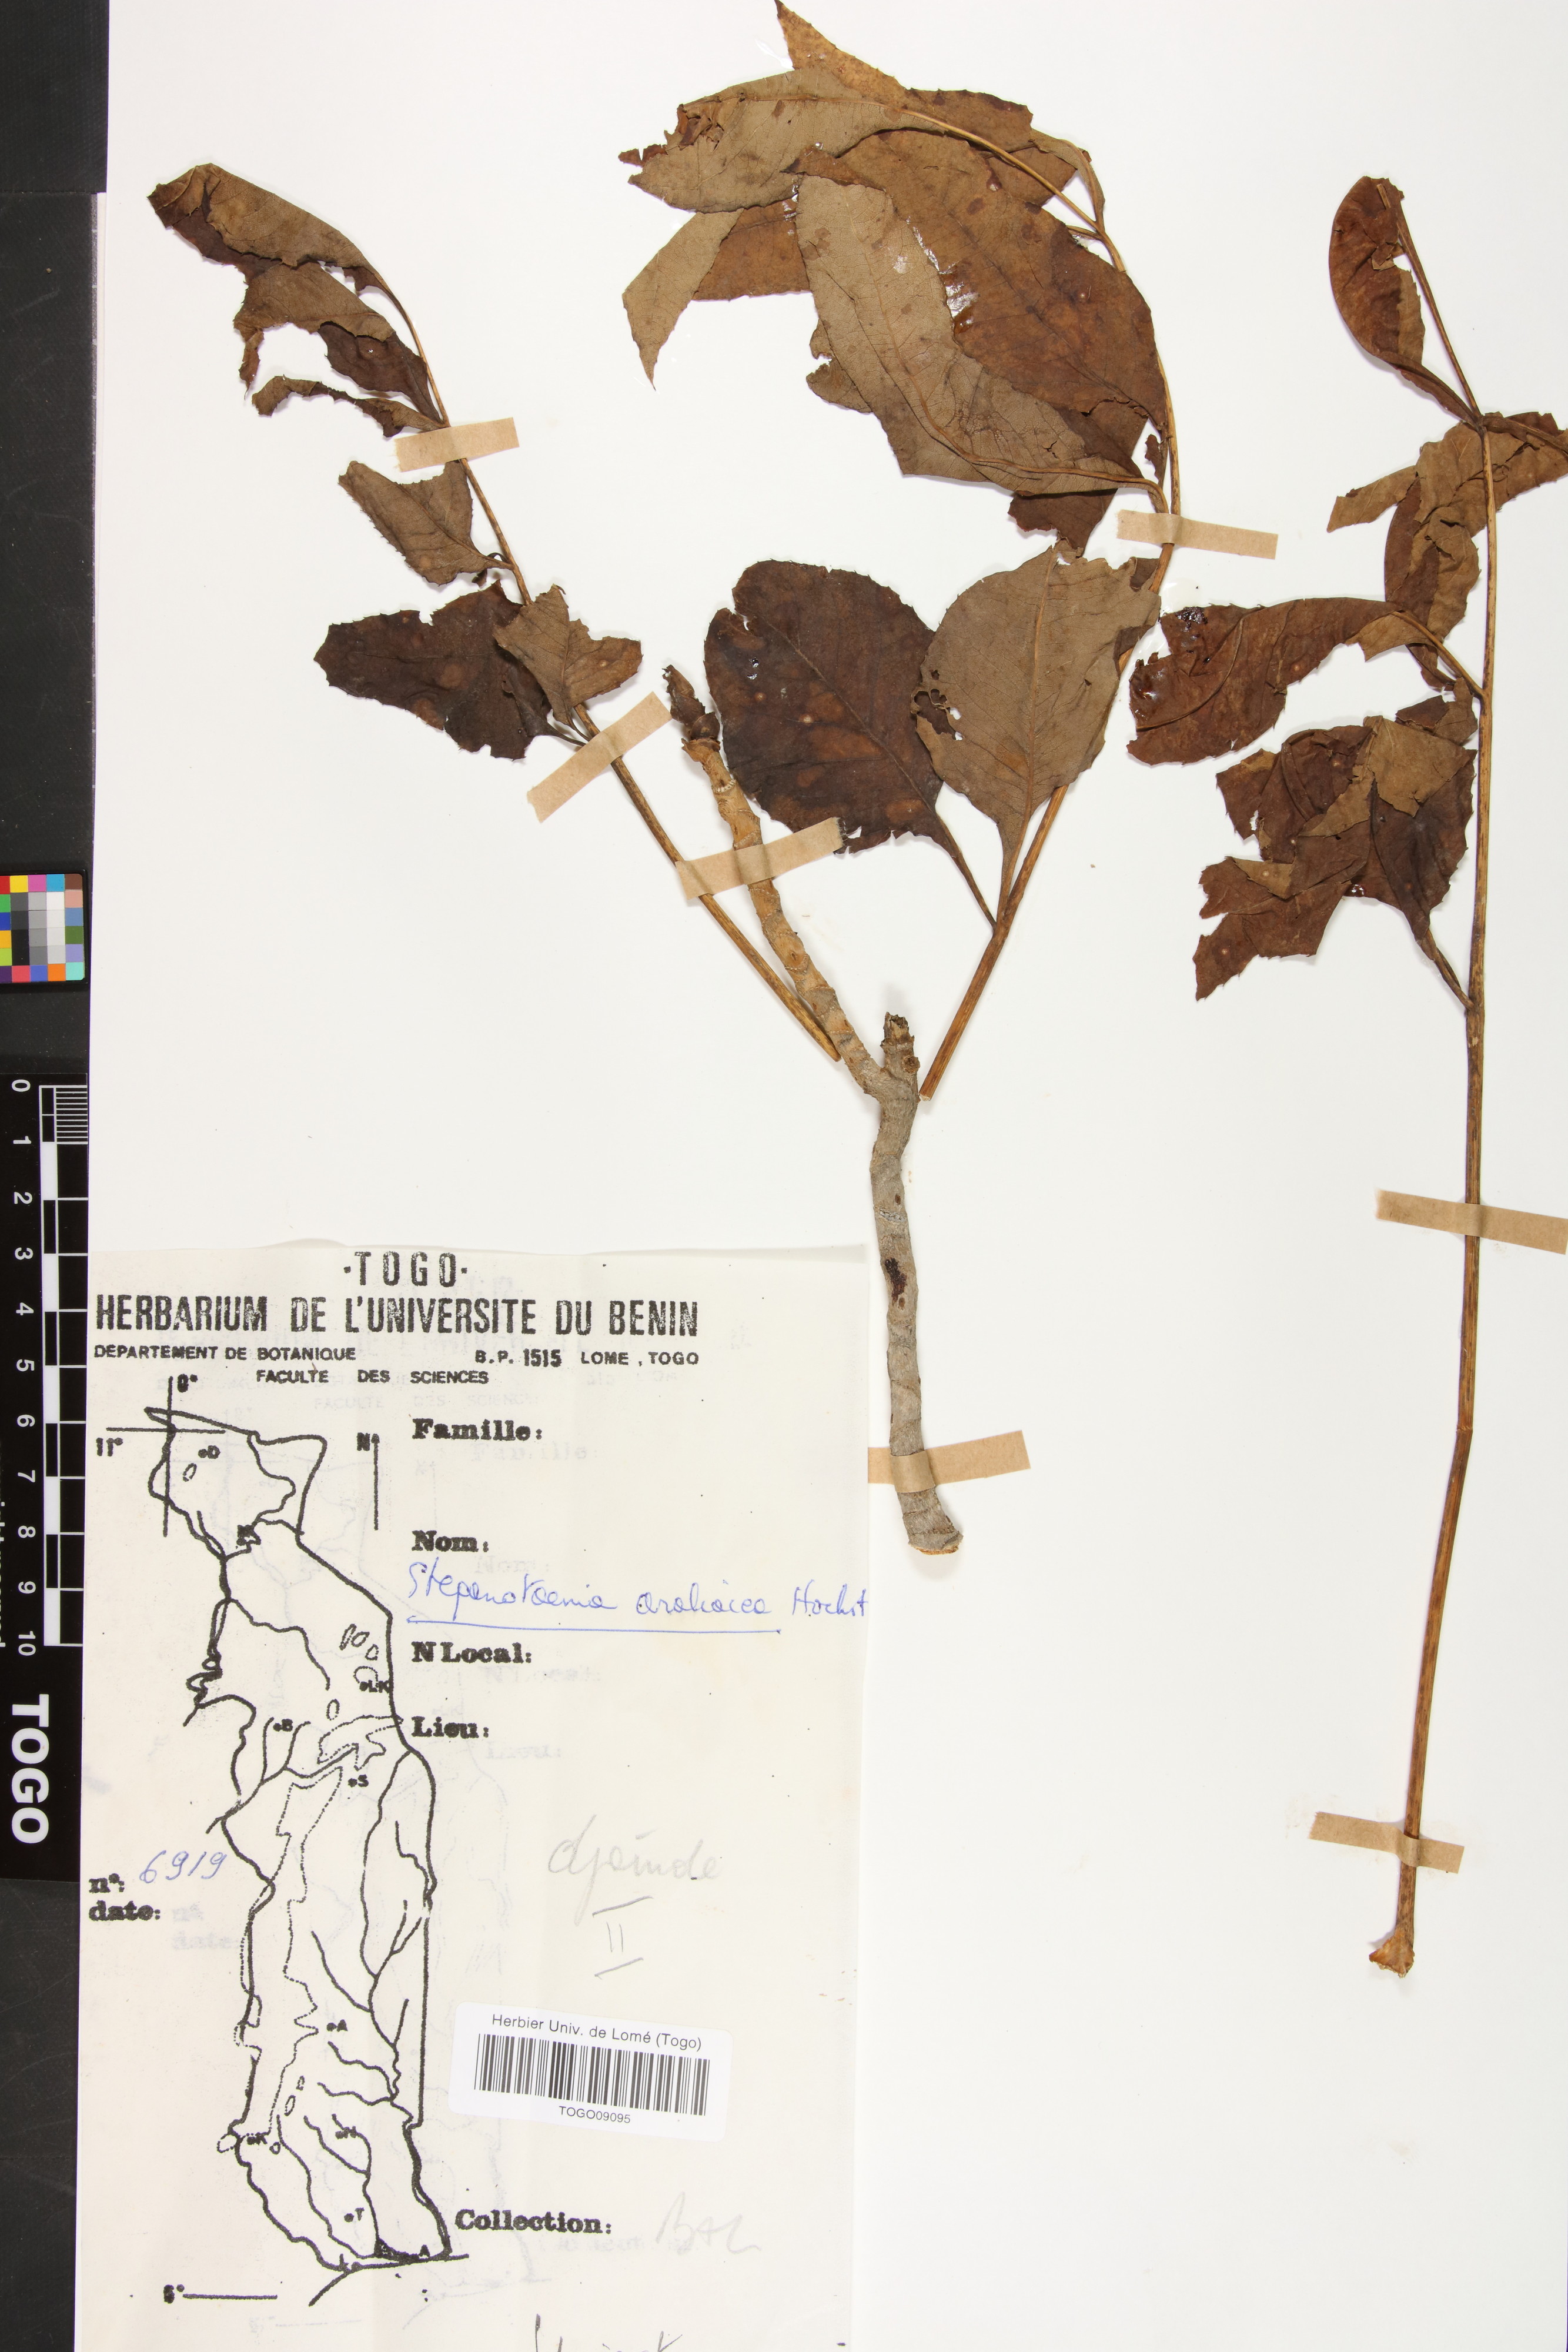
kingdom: Plantae
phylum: Tracheophyta
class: Magnoliopsida
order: Apiales
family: Apiaceae
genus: Steganotaenia
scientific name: Steganotaenia araliacea
